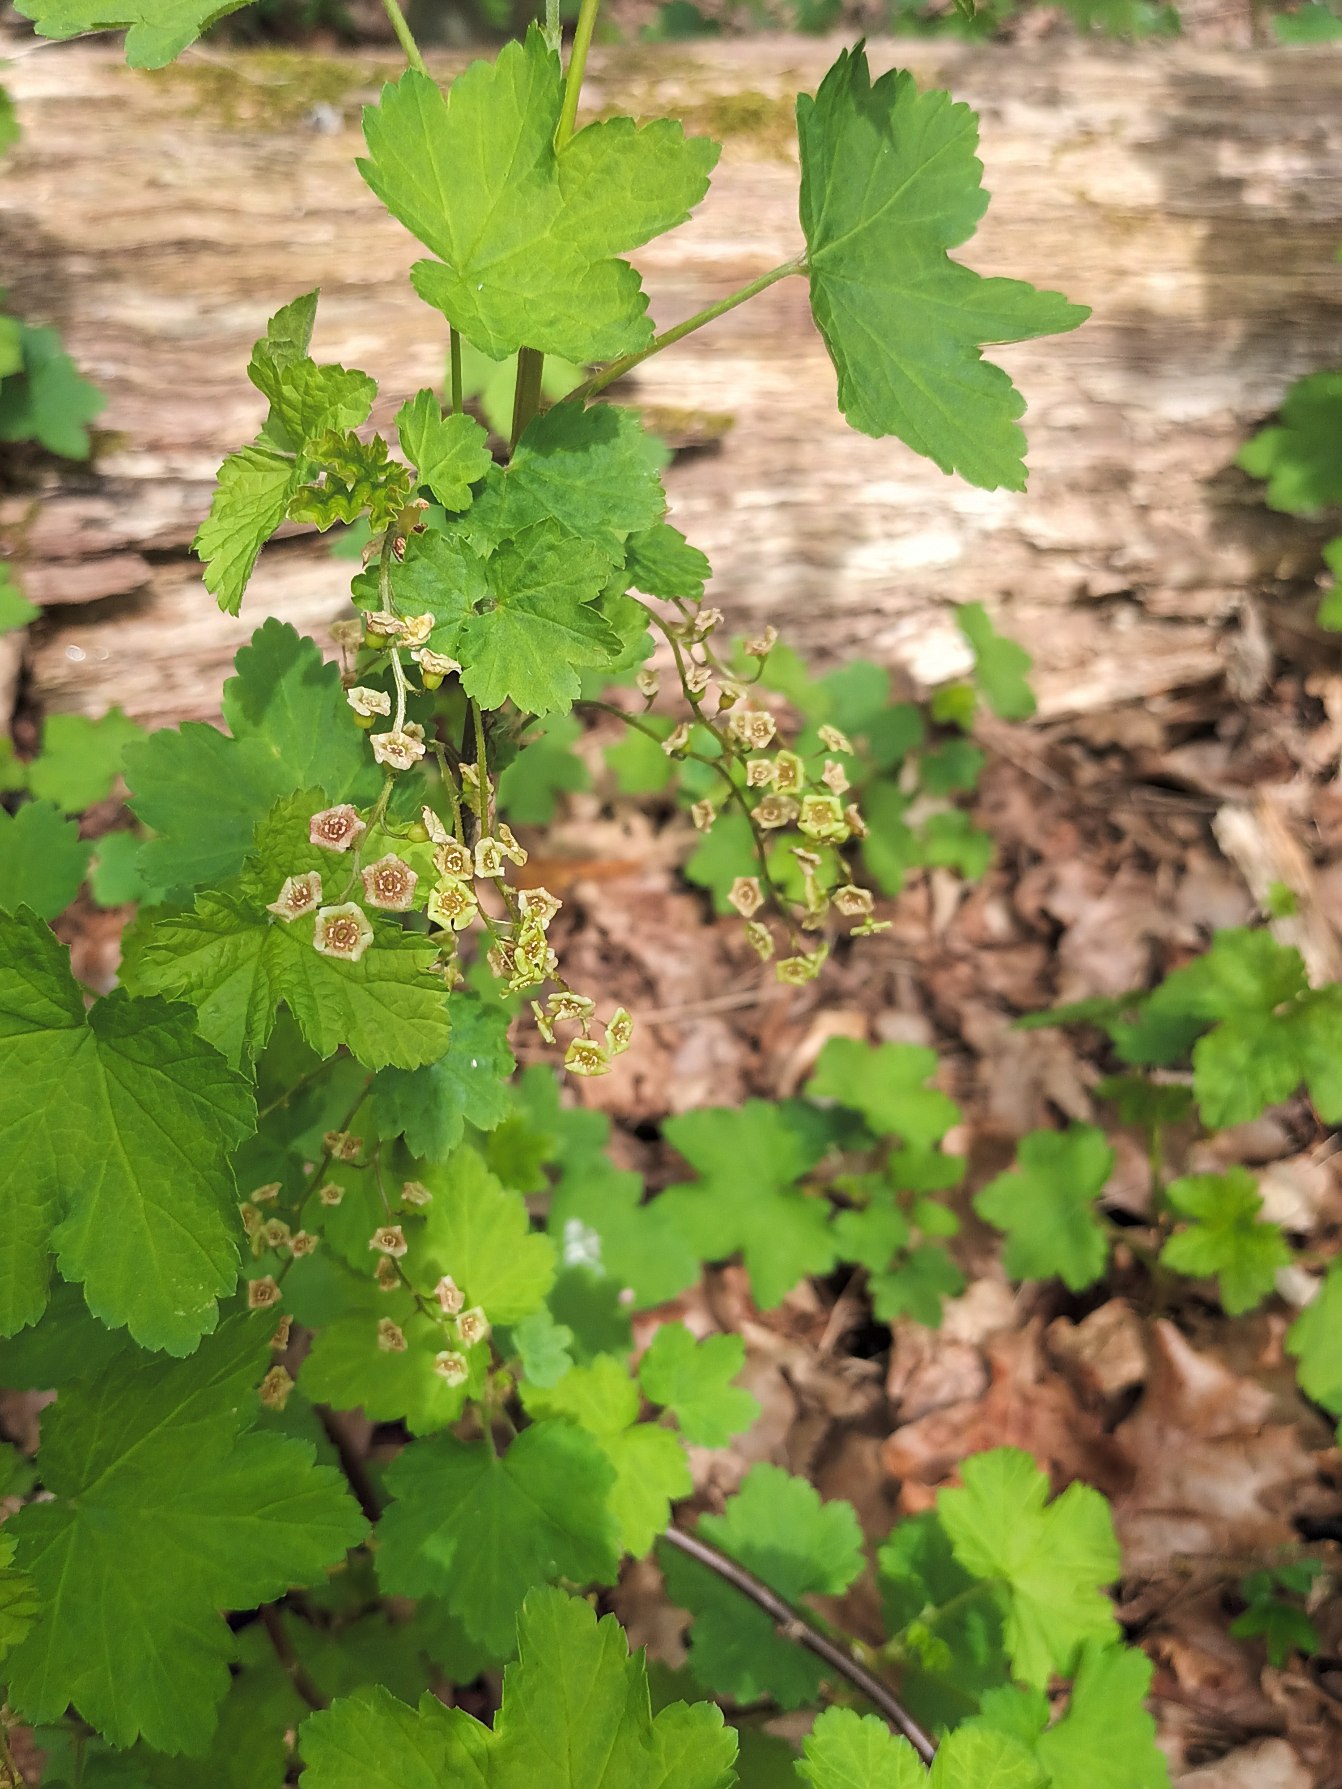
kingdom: Plantae
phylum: Tracheophyta
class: Magnoliopsida
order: Saxifragales
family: Grossulariaceae
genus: Ribes
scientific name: Ribes rubrum
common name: Have-ribs
